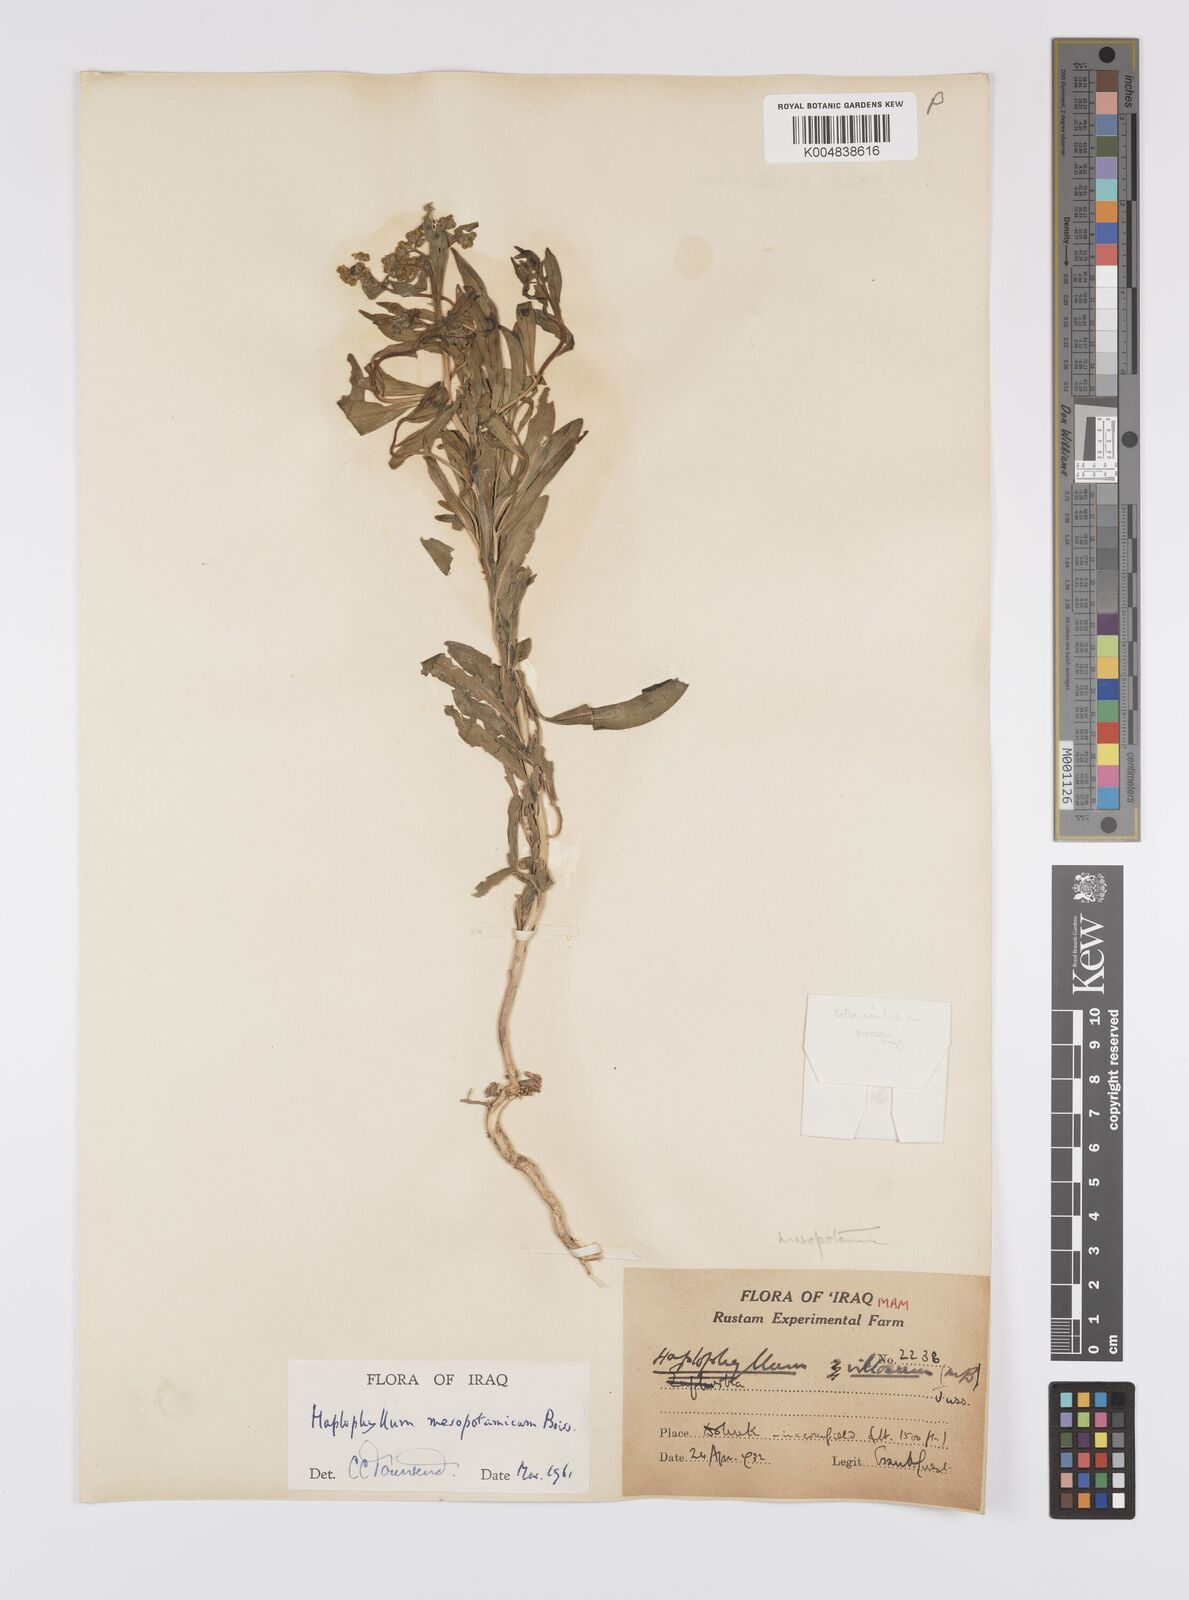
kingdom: Plantae
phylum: Tracheophyta
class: Magnoliopsida
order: Sapindales
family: Rutaceae
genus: Haplophyllum
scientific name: Haplophyllum buxbaumii
